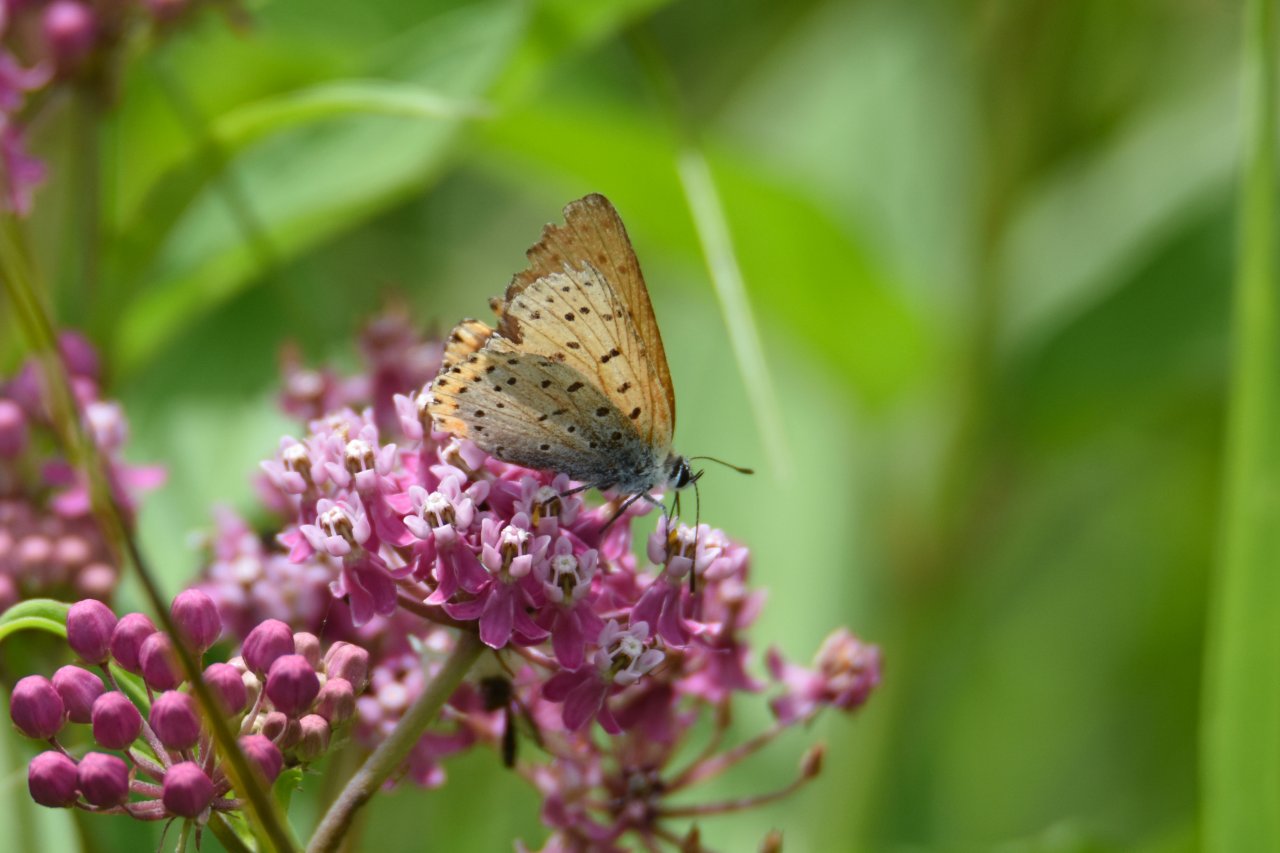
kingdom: Animalia
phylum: Arthropoda
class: Insecta
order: Lepidoptera
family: Sesiidae
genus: Sesia
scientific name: Sesia Lycaena hyllus
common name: Bronze Copper
